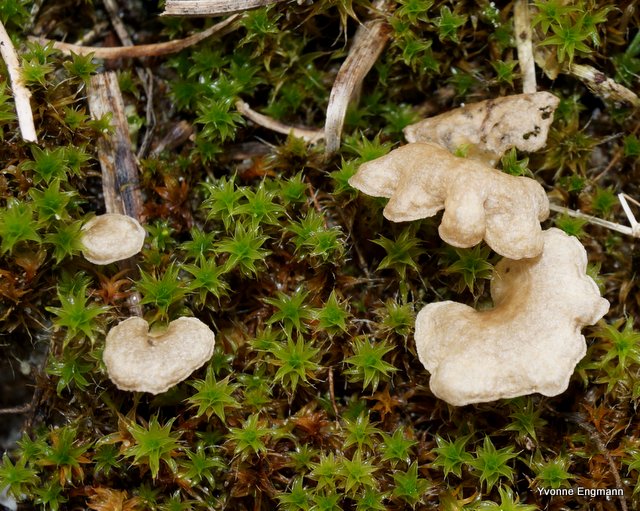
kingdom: Fungi
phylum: Basidiomycota
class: Agaricomycetes
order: Agaricales
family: Hygrophoraceae
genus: Arrhenia
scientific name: Arrhenia spathulata
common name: skæv fontænehat
